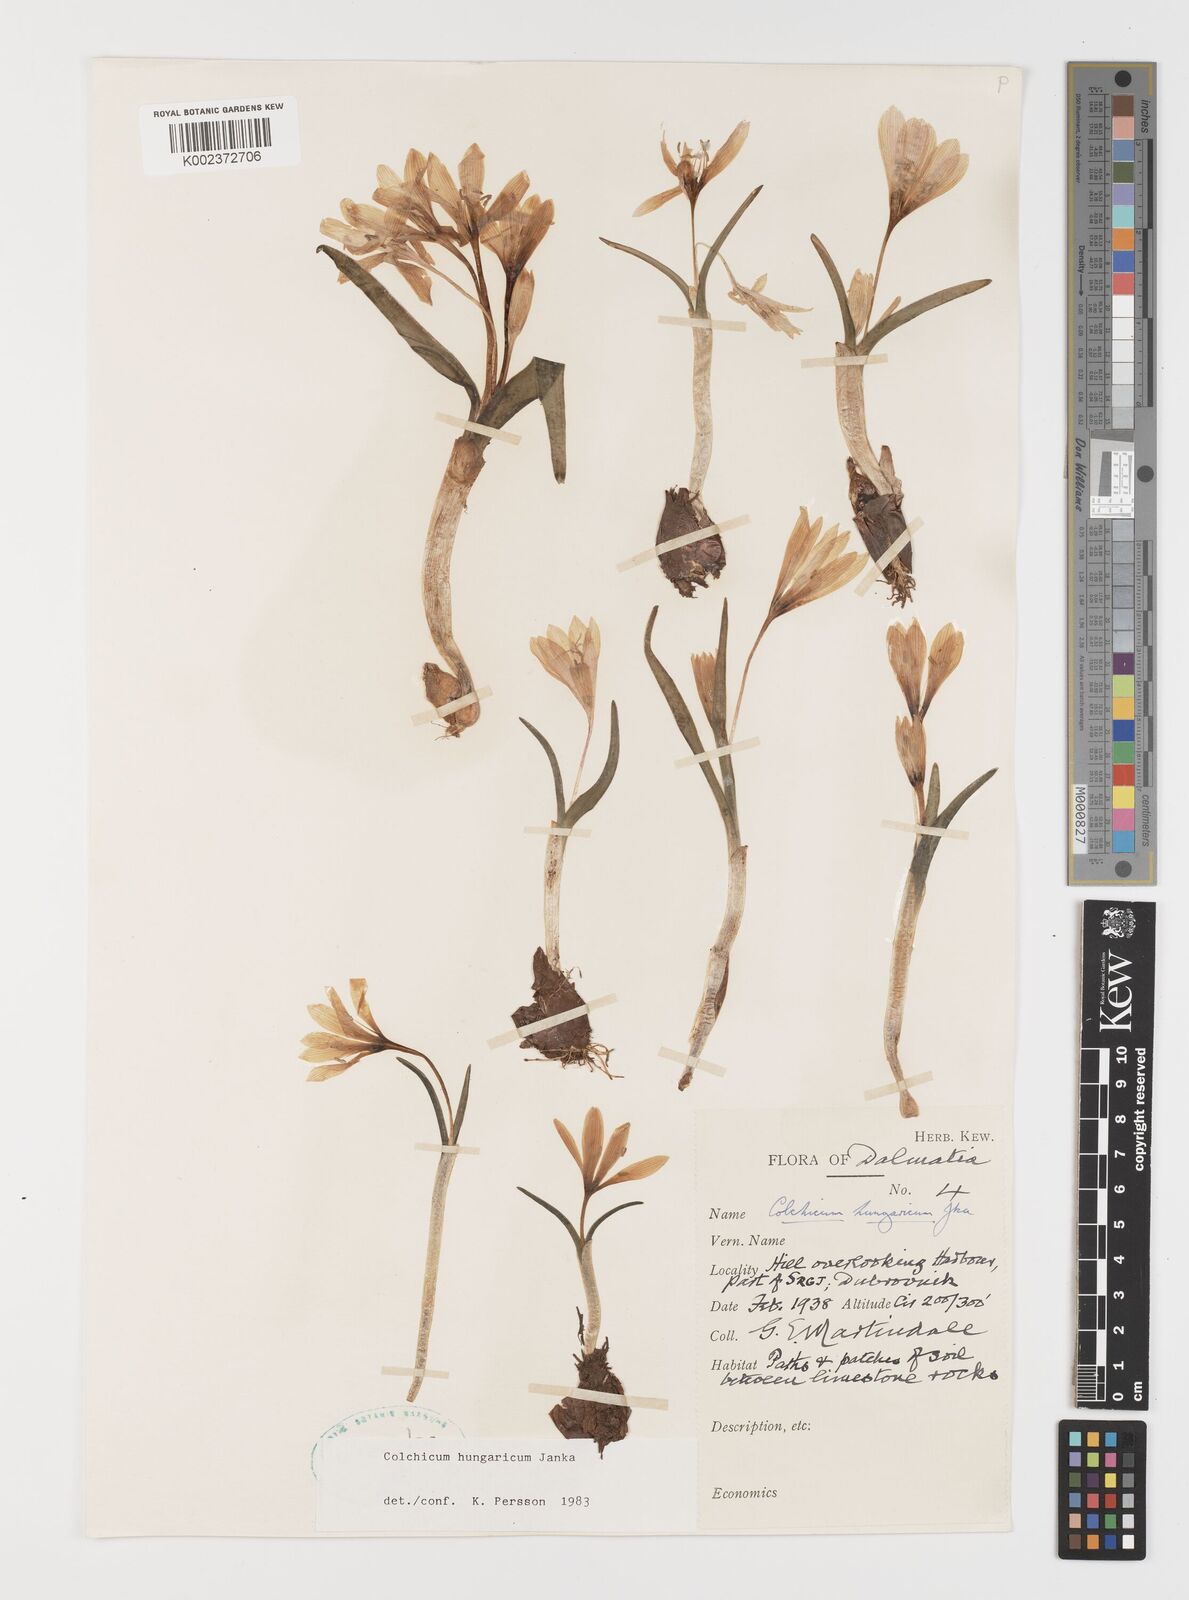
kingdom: Plantae
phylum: Tracheophyta
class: Liliopsida
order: Liliales
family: Colchicaceae
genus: Colchicum
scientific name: Colchicum hungaricum
